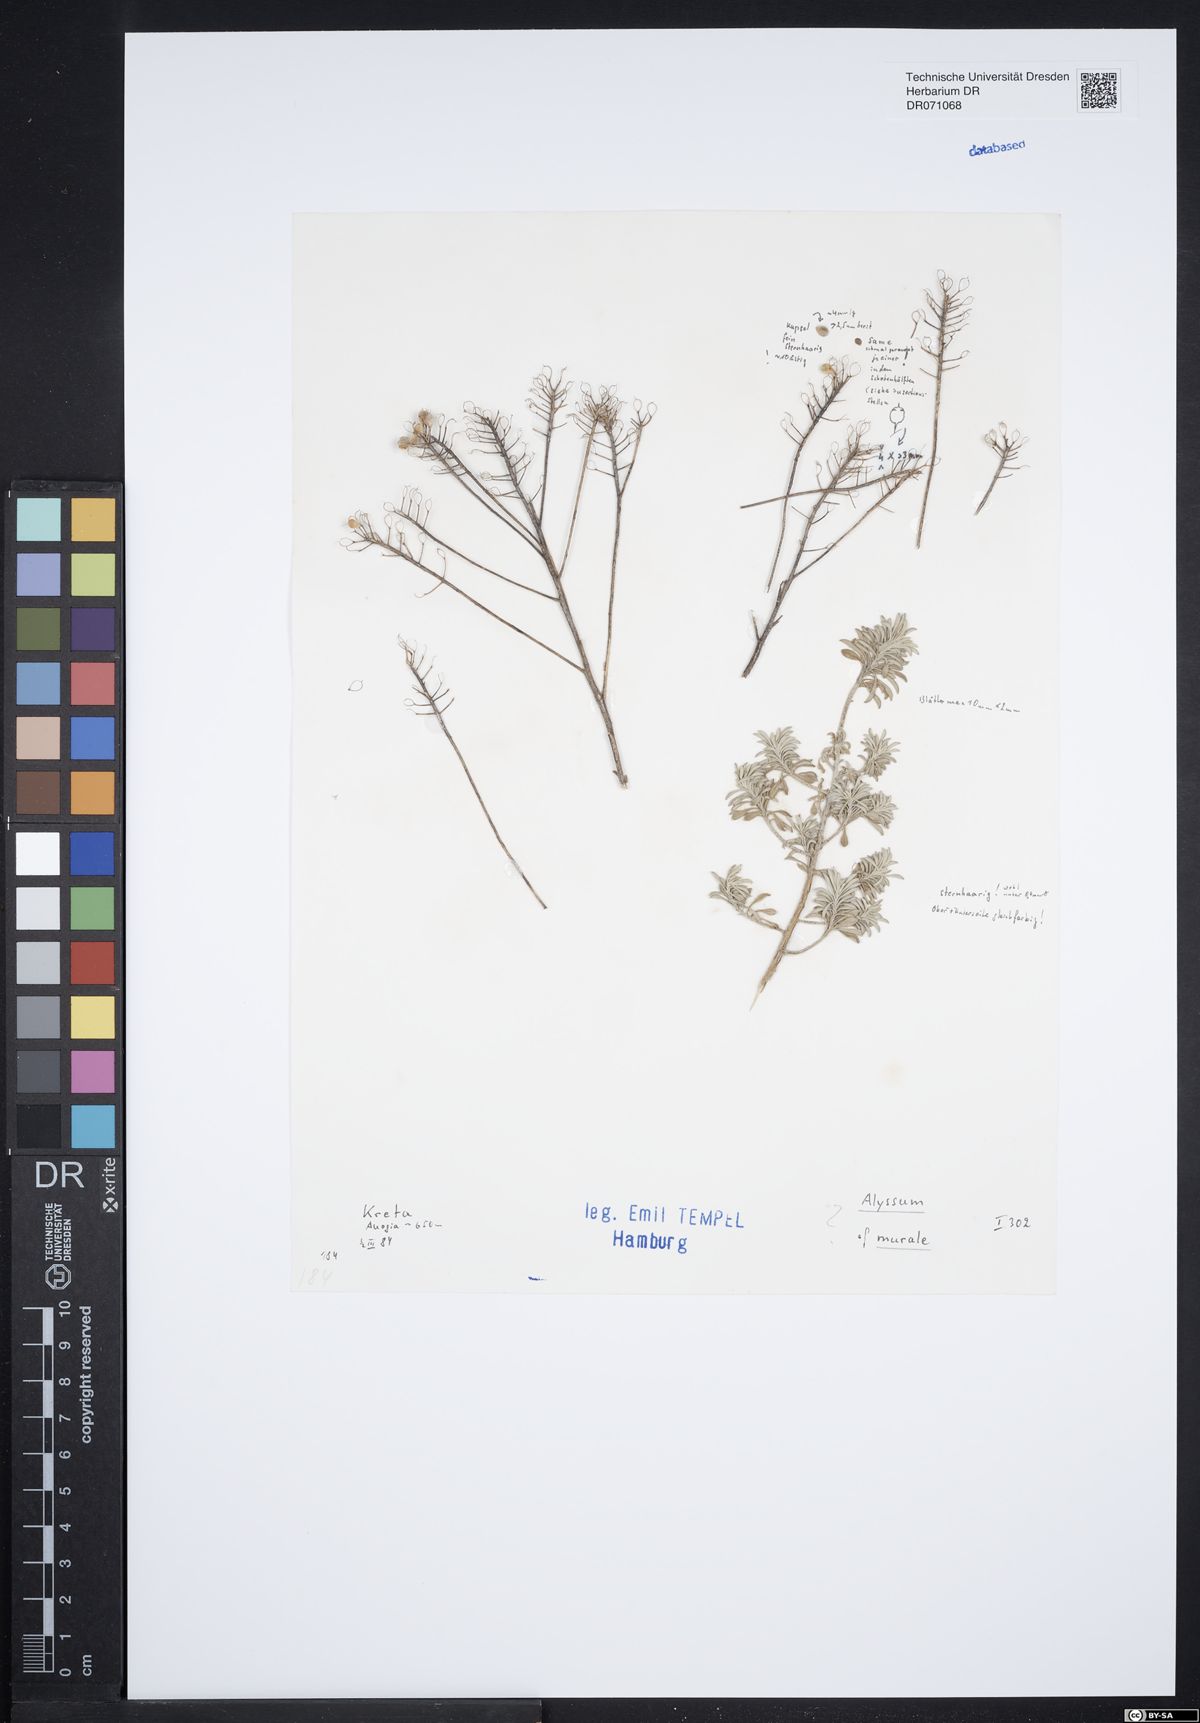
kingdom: Plantae
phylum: Tracheophyta
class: Magnoliopsida
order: Brassicales
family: Brassicaceae
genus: Odontarrhena
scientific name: Odontarrhena muralis
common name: Rock alyssum
